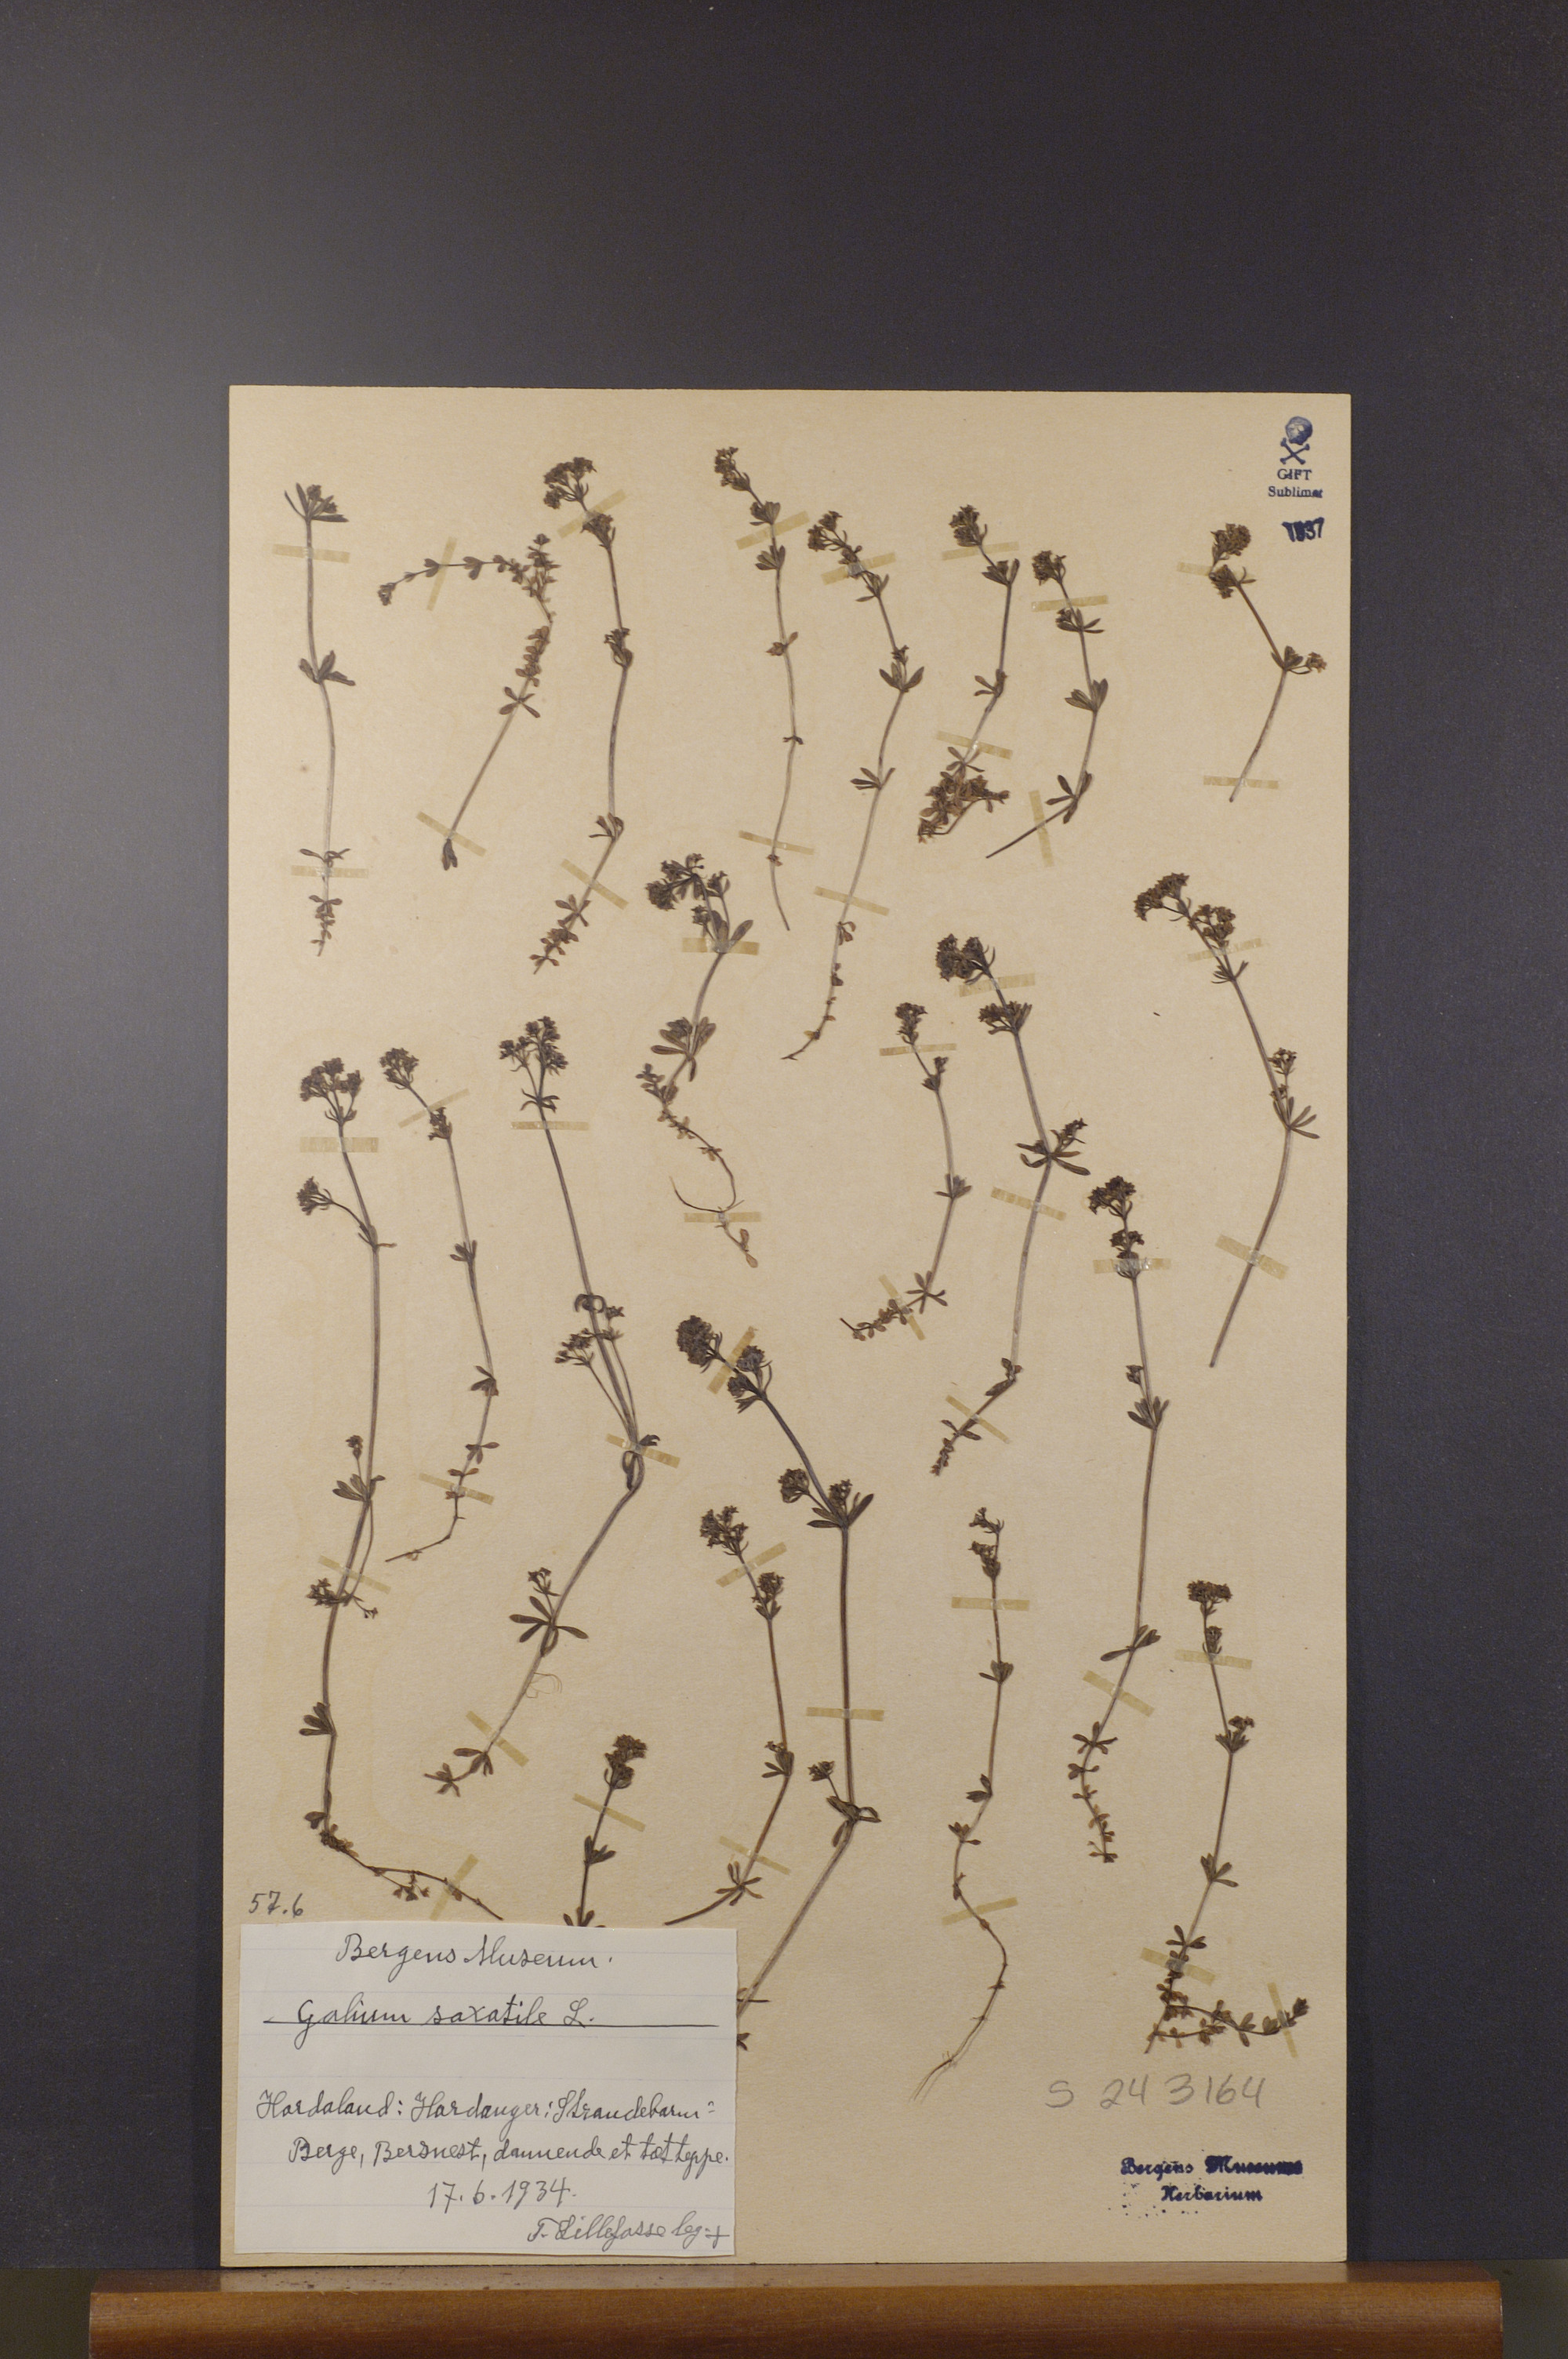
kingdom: Plantae
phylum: Tracheophyta
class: Magnoliopsida
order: Gentianales
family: Rubiaceae
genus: Galium
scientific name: Galium saxatile
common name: Heath bedstraw
